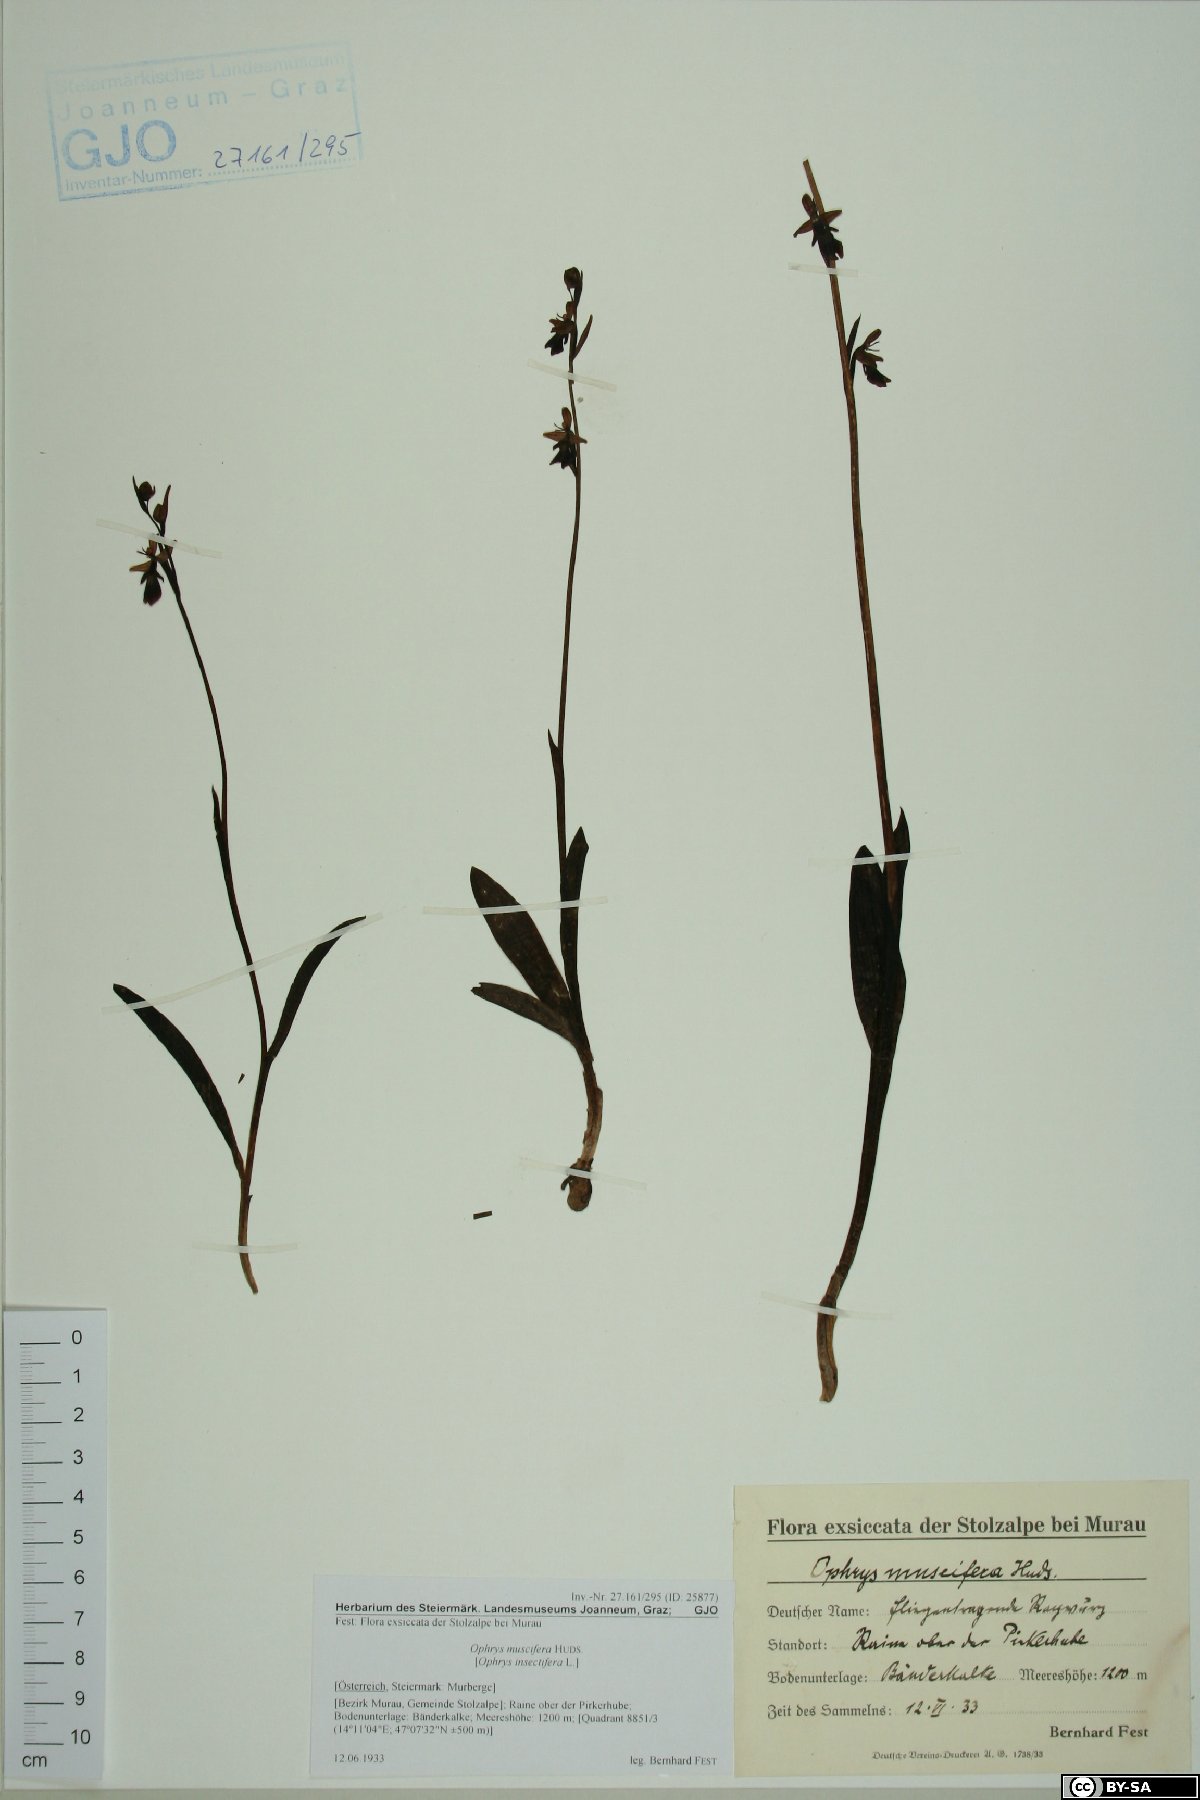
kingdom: Plantae
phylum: Tracheophyta
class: Liliopsida
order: Asparagales
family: Orchidaceae
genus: Ophrys
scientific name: Ophrys insectifera
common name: Fly orchid
